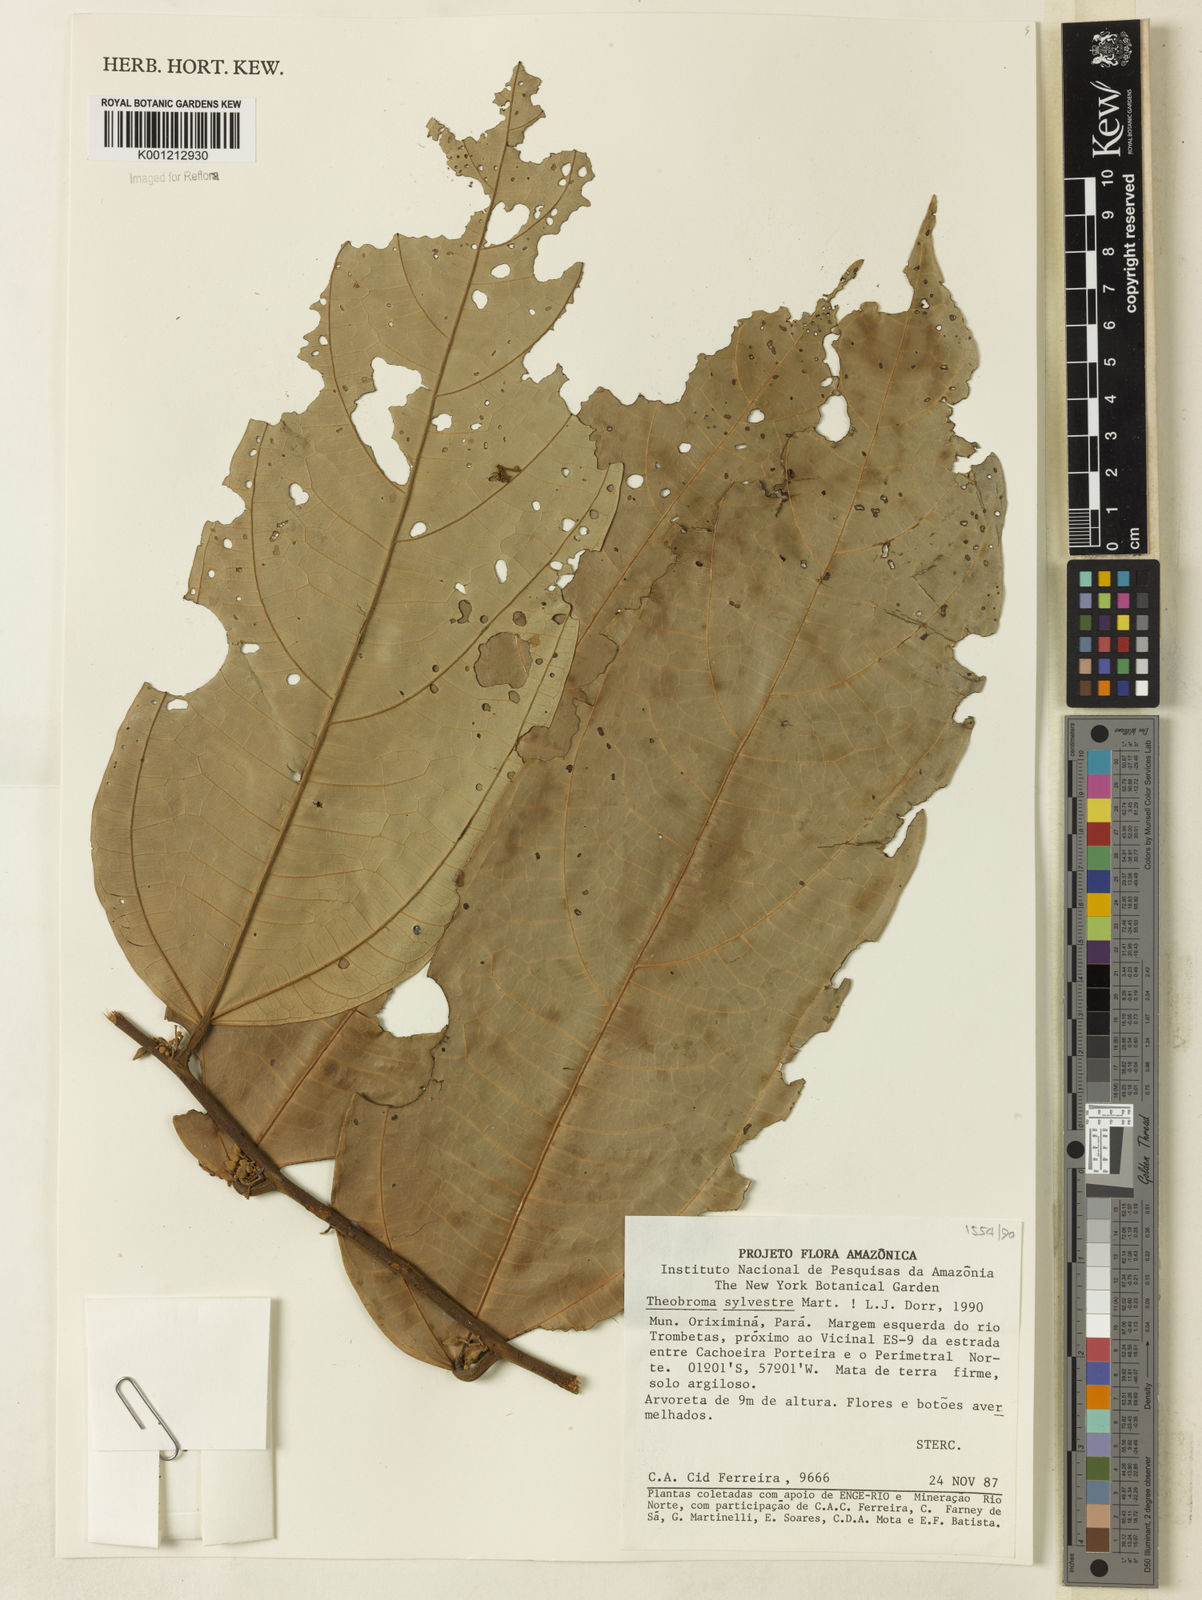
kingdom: Plantae
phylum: Tracheophyta
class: Magnoliopsida
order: Malvales
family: Malvaceae
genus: Theobroma
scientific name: Theobroma sylvestre
